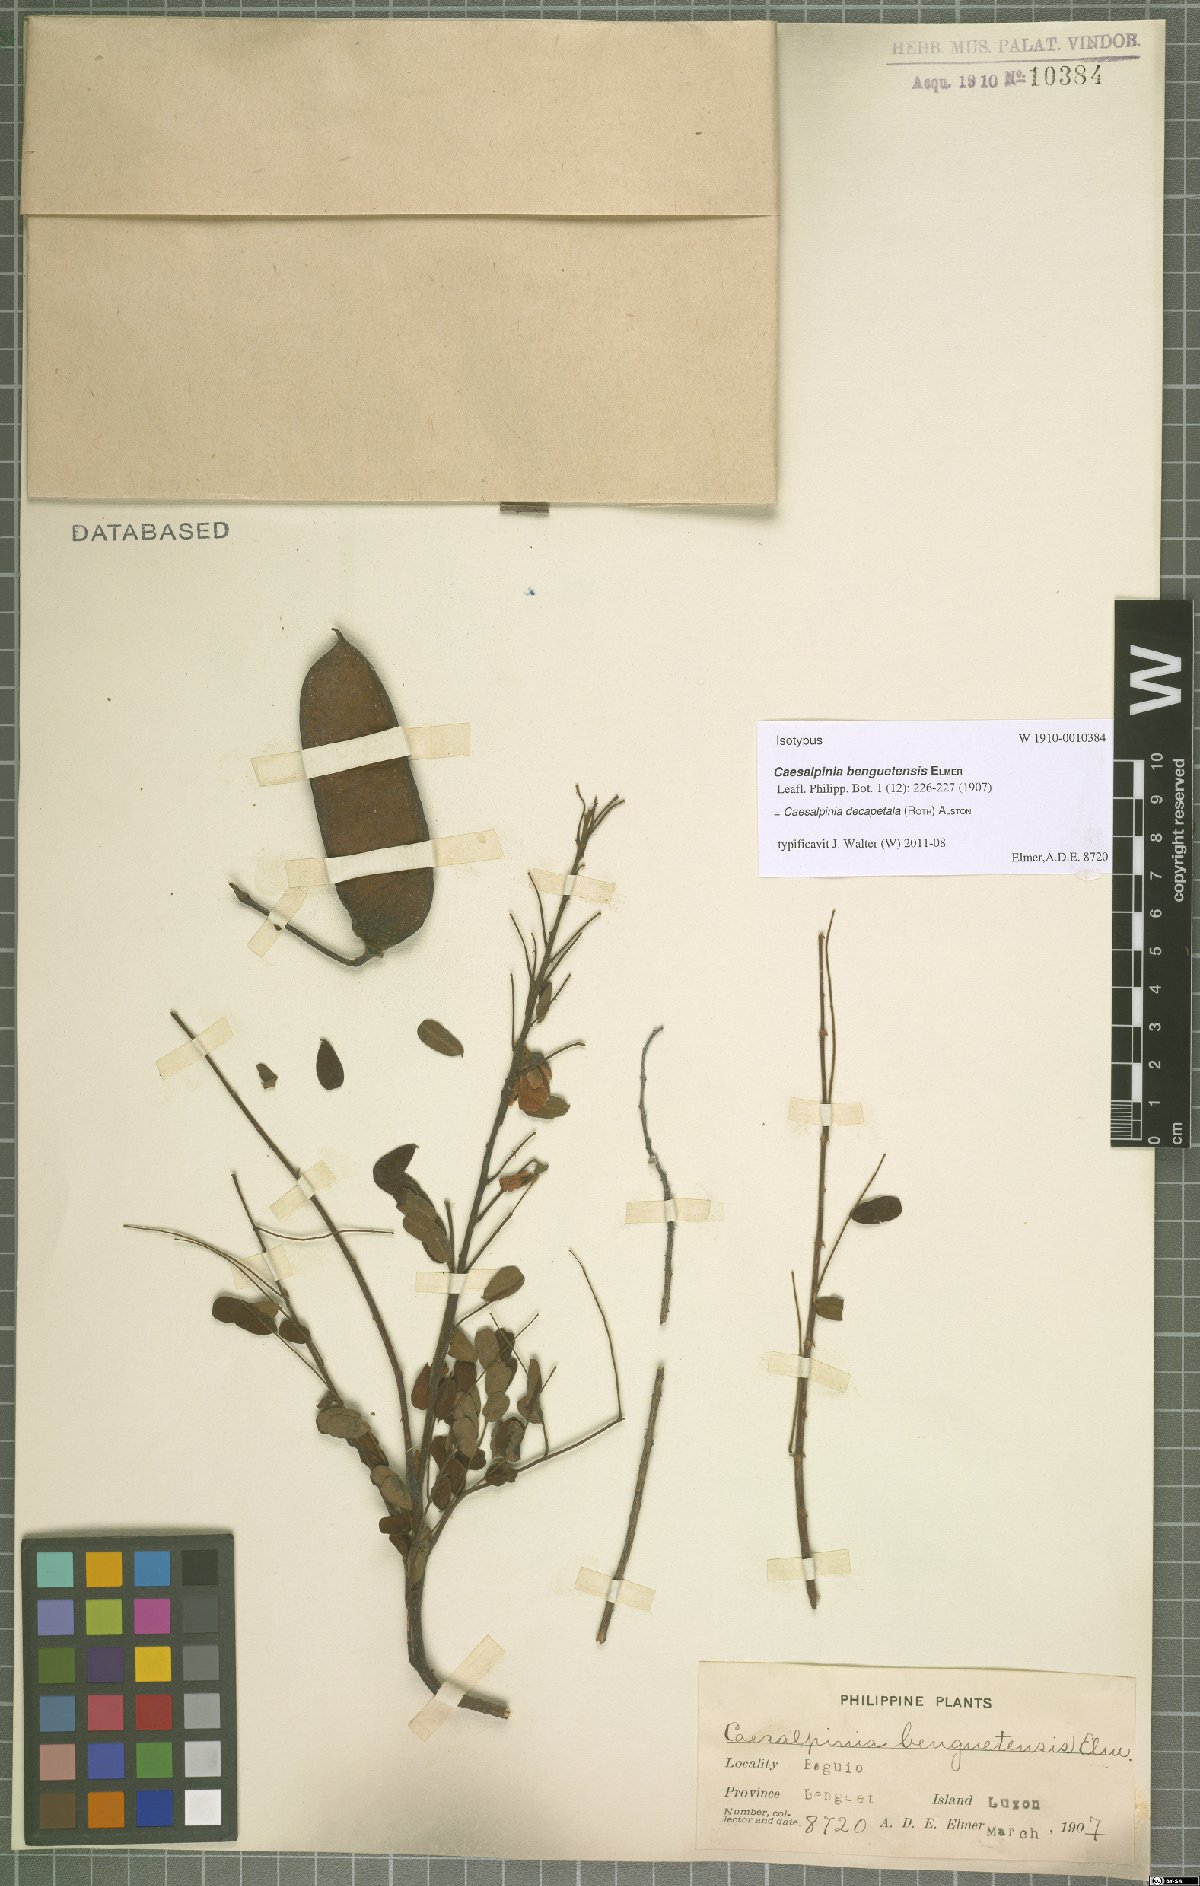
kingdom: Plantae
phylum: Tracheophyta
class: Magnoliopsida
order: Fabales
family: Fabaceae
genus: Biancaea
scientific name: Biancaea decapetala
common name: Cat's claw
